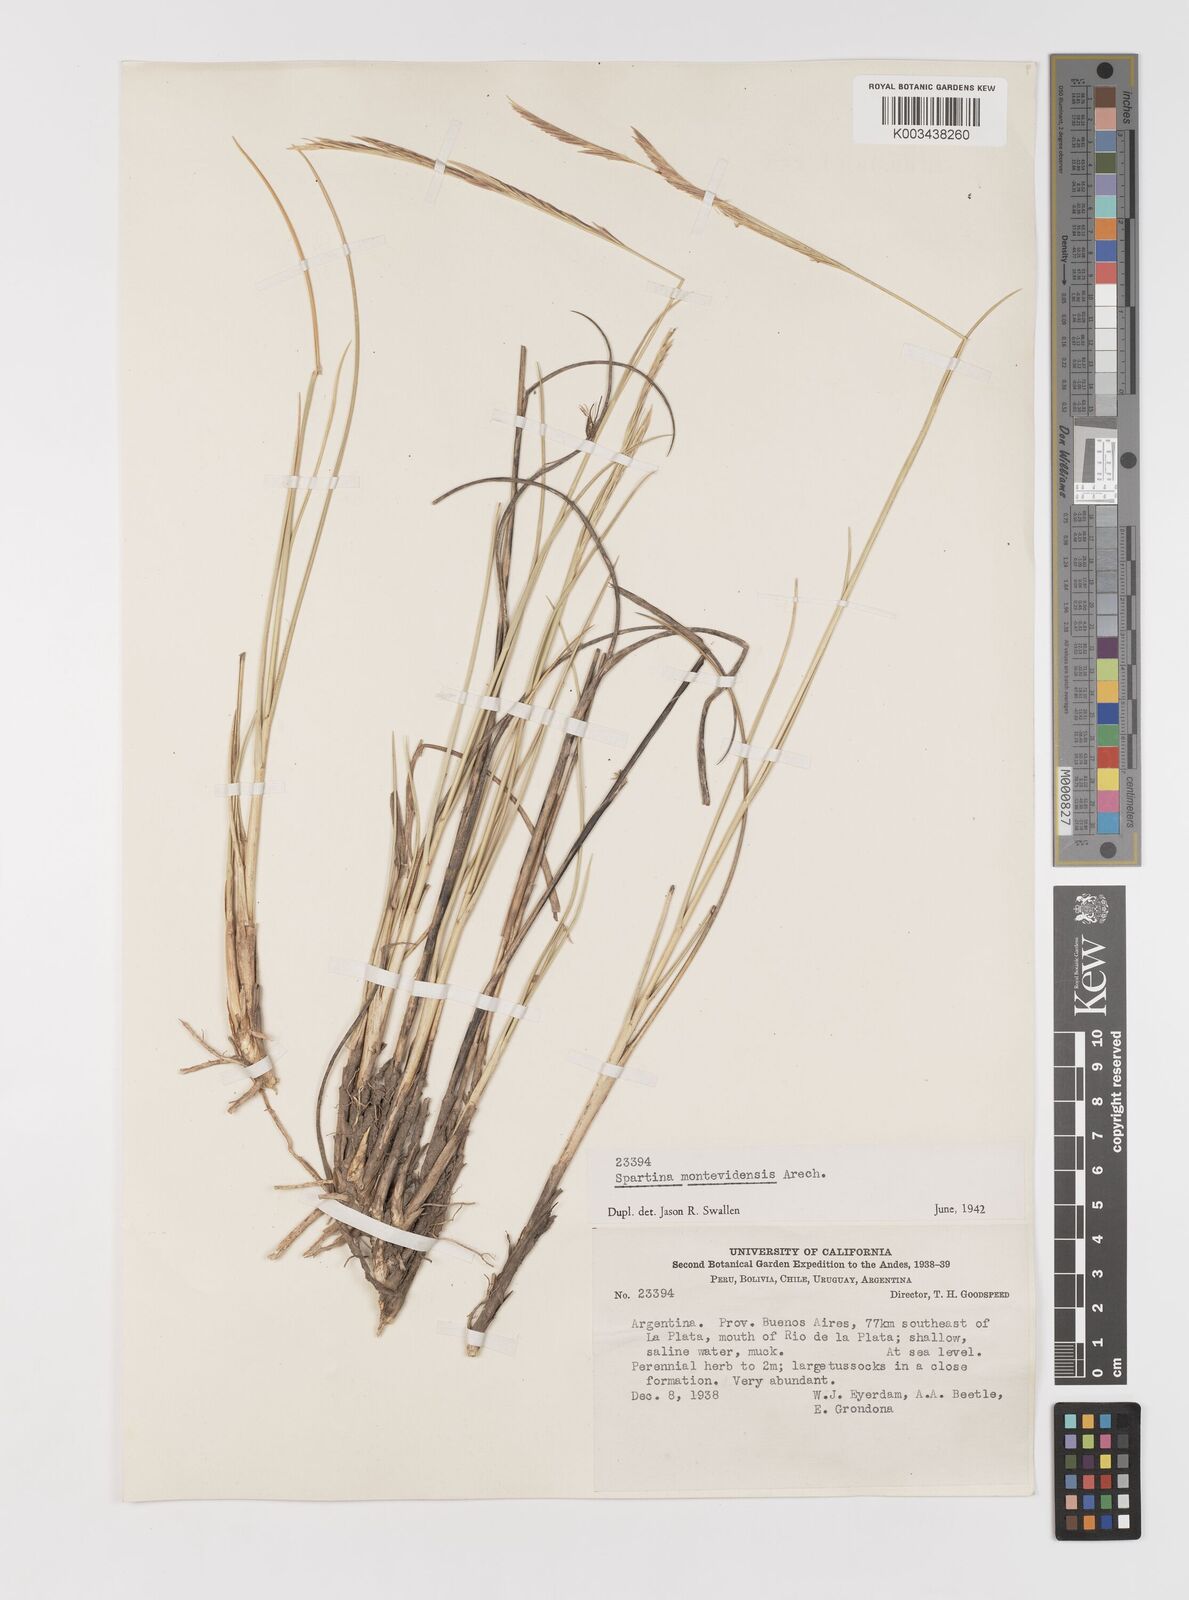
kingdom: Plantae
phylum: Tracheophyta
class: Liliopsida
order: Poales
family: Poaceae
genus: Sporobolus
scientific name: Sporobolus montevidensis
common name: Montevideo dropseed
